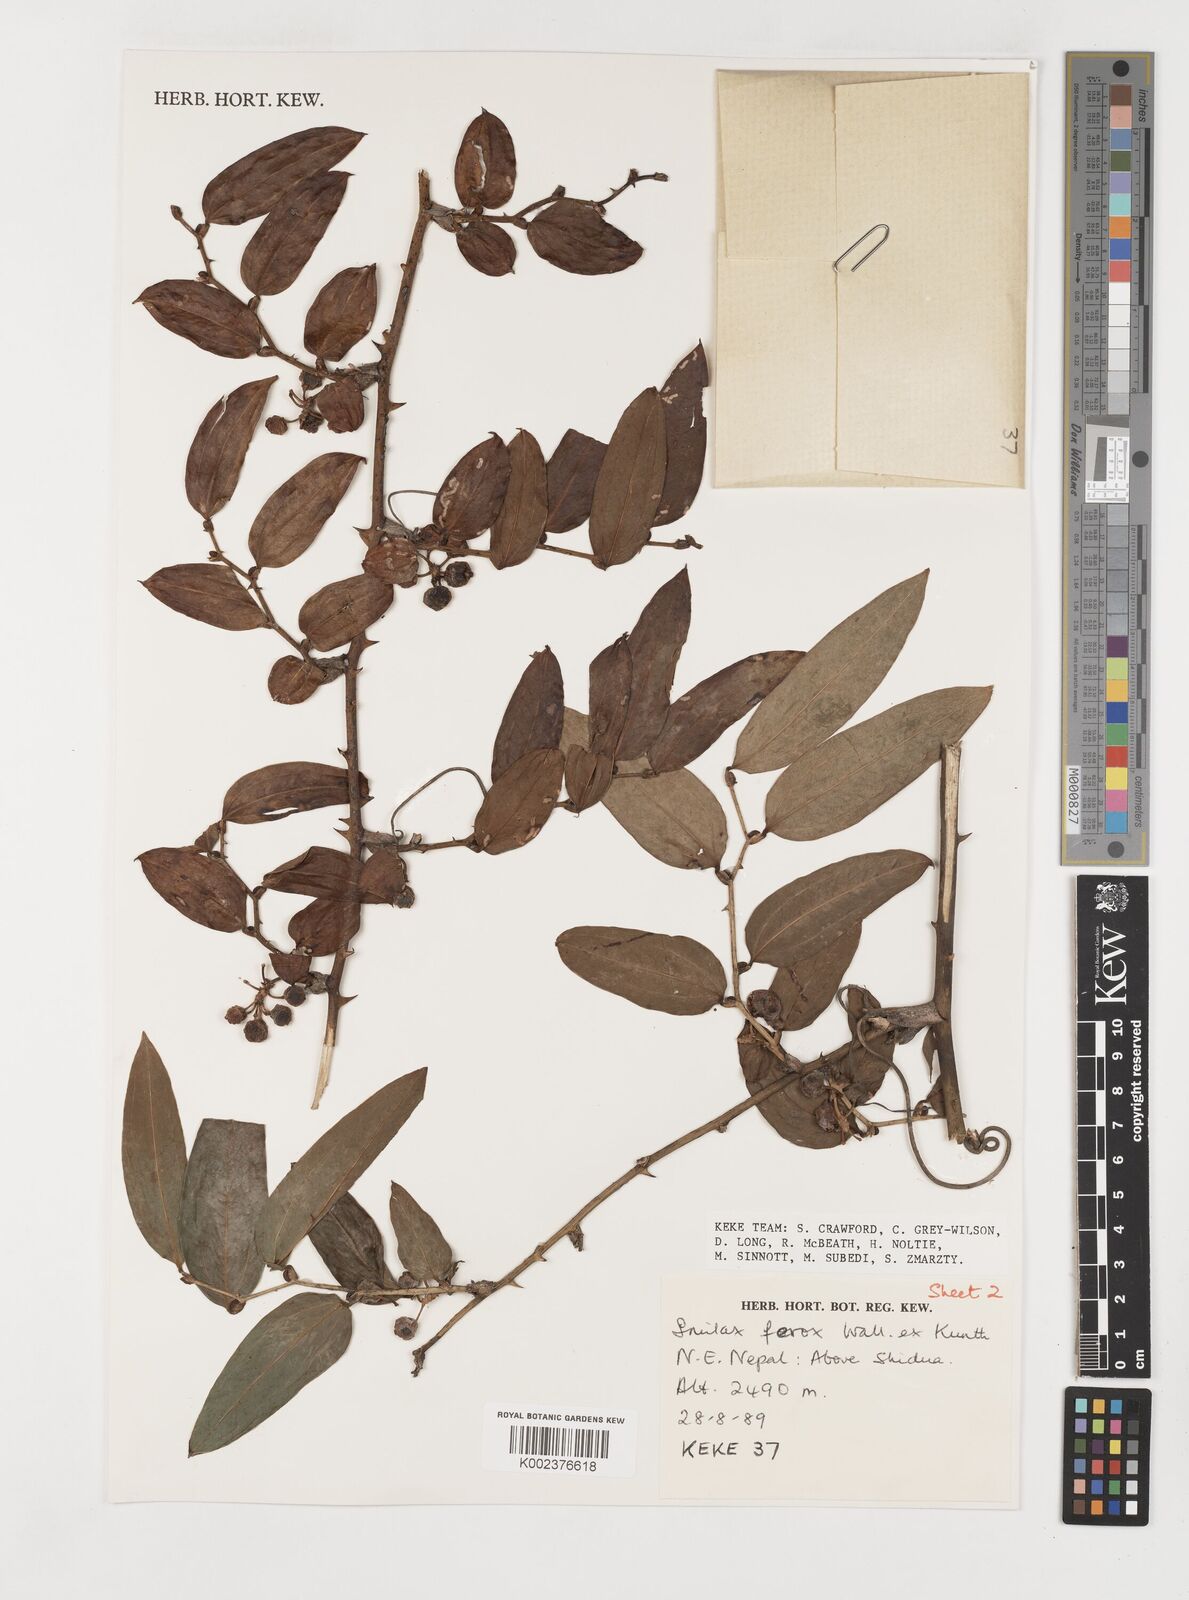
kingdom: Plantae
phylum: Tracheophyta
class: Liliopsida
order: Liliales
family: Smilacaceae
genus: Smilax
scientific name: Smilax ferox
